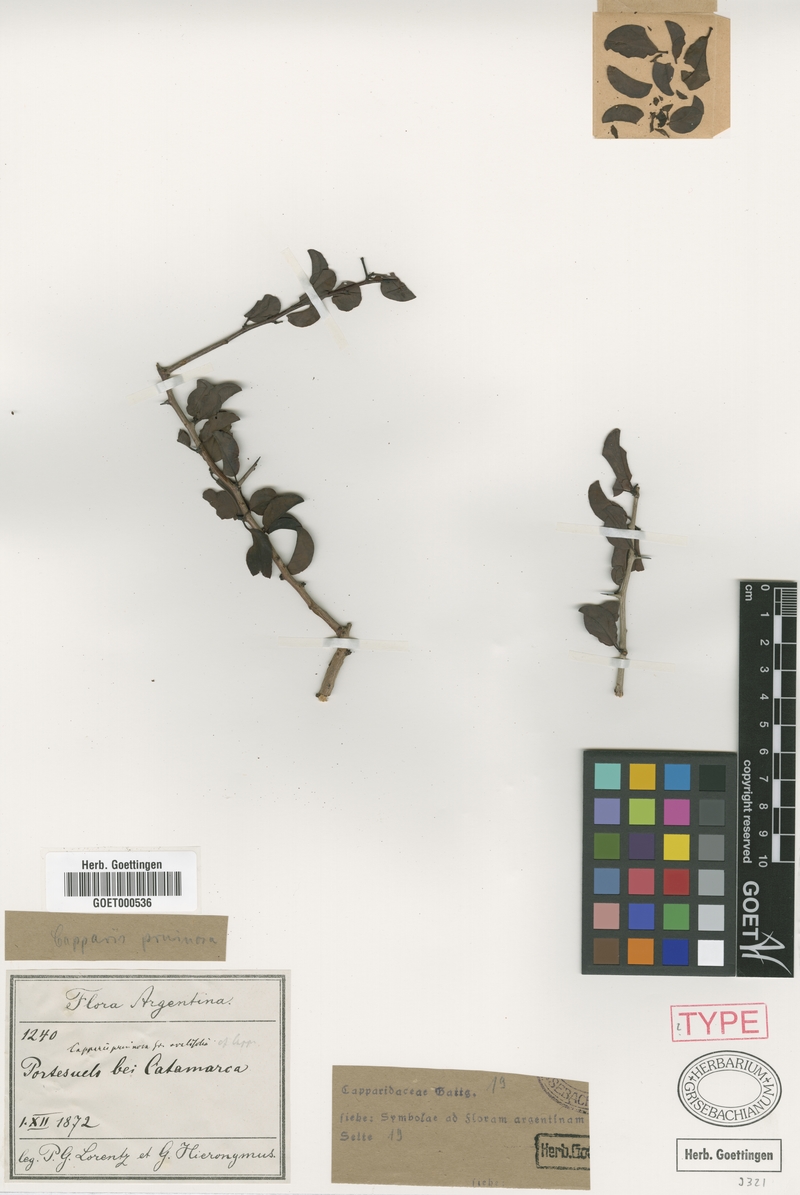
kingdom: Plantae
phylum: Tracheophyta
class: Magnoliopsida
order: Brassicales
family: Capparaceae
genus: Anisocapparis
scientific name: Anisocapparis speciosa
